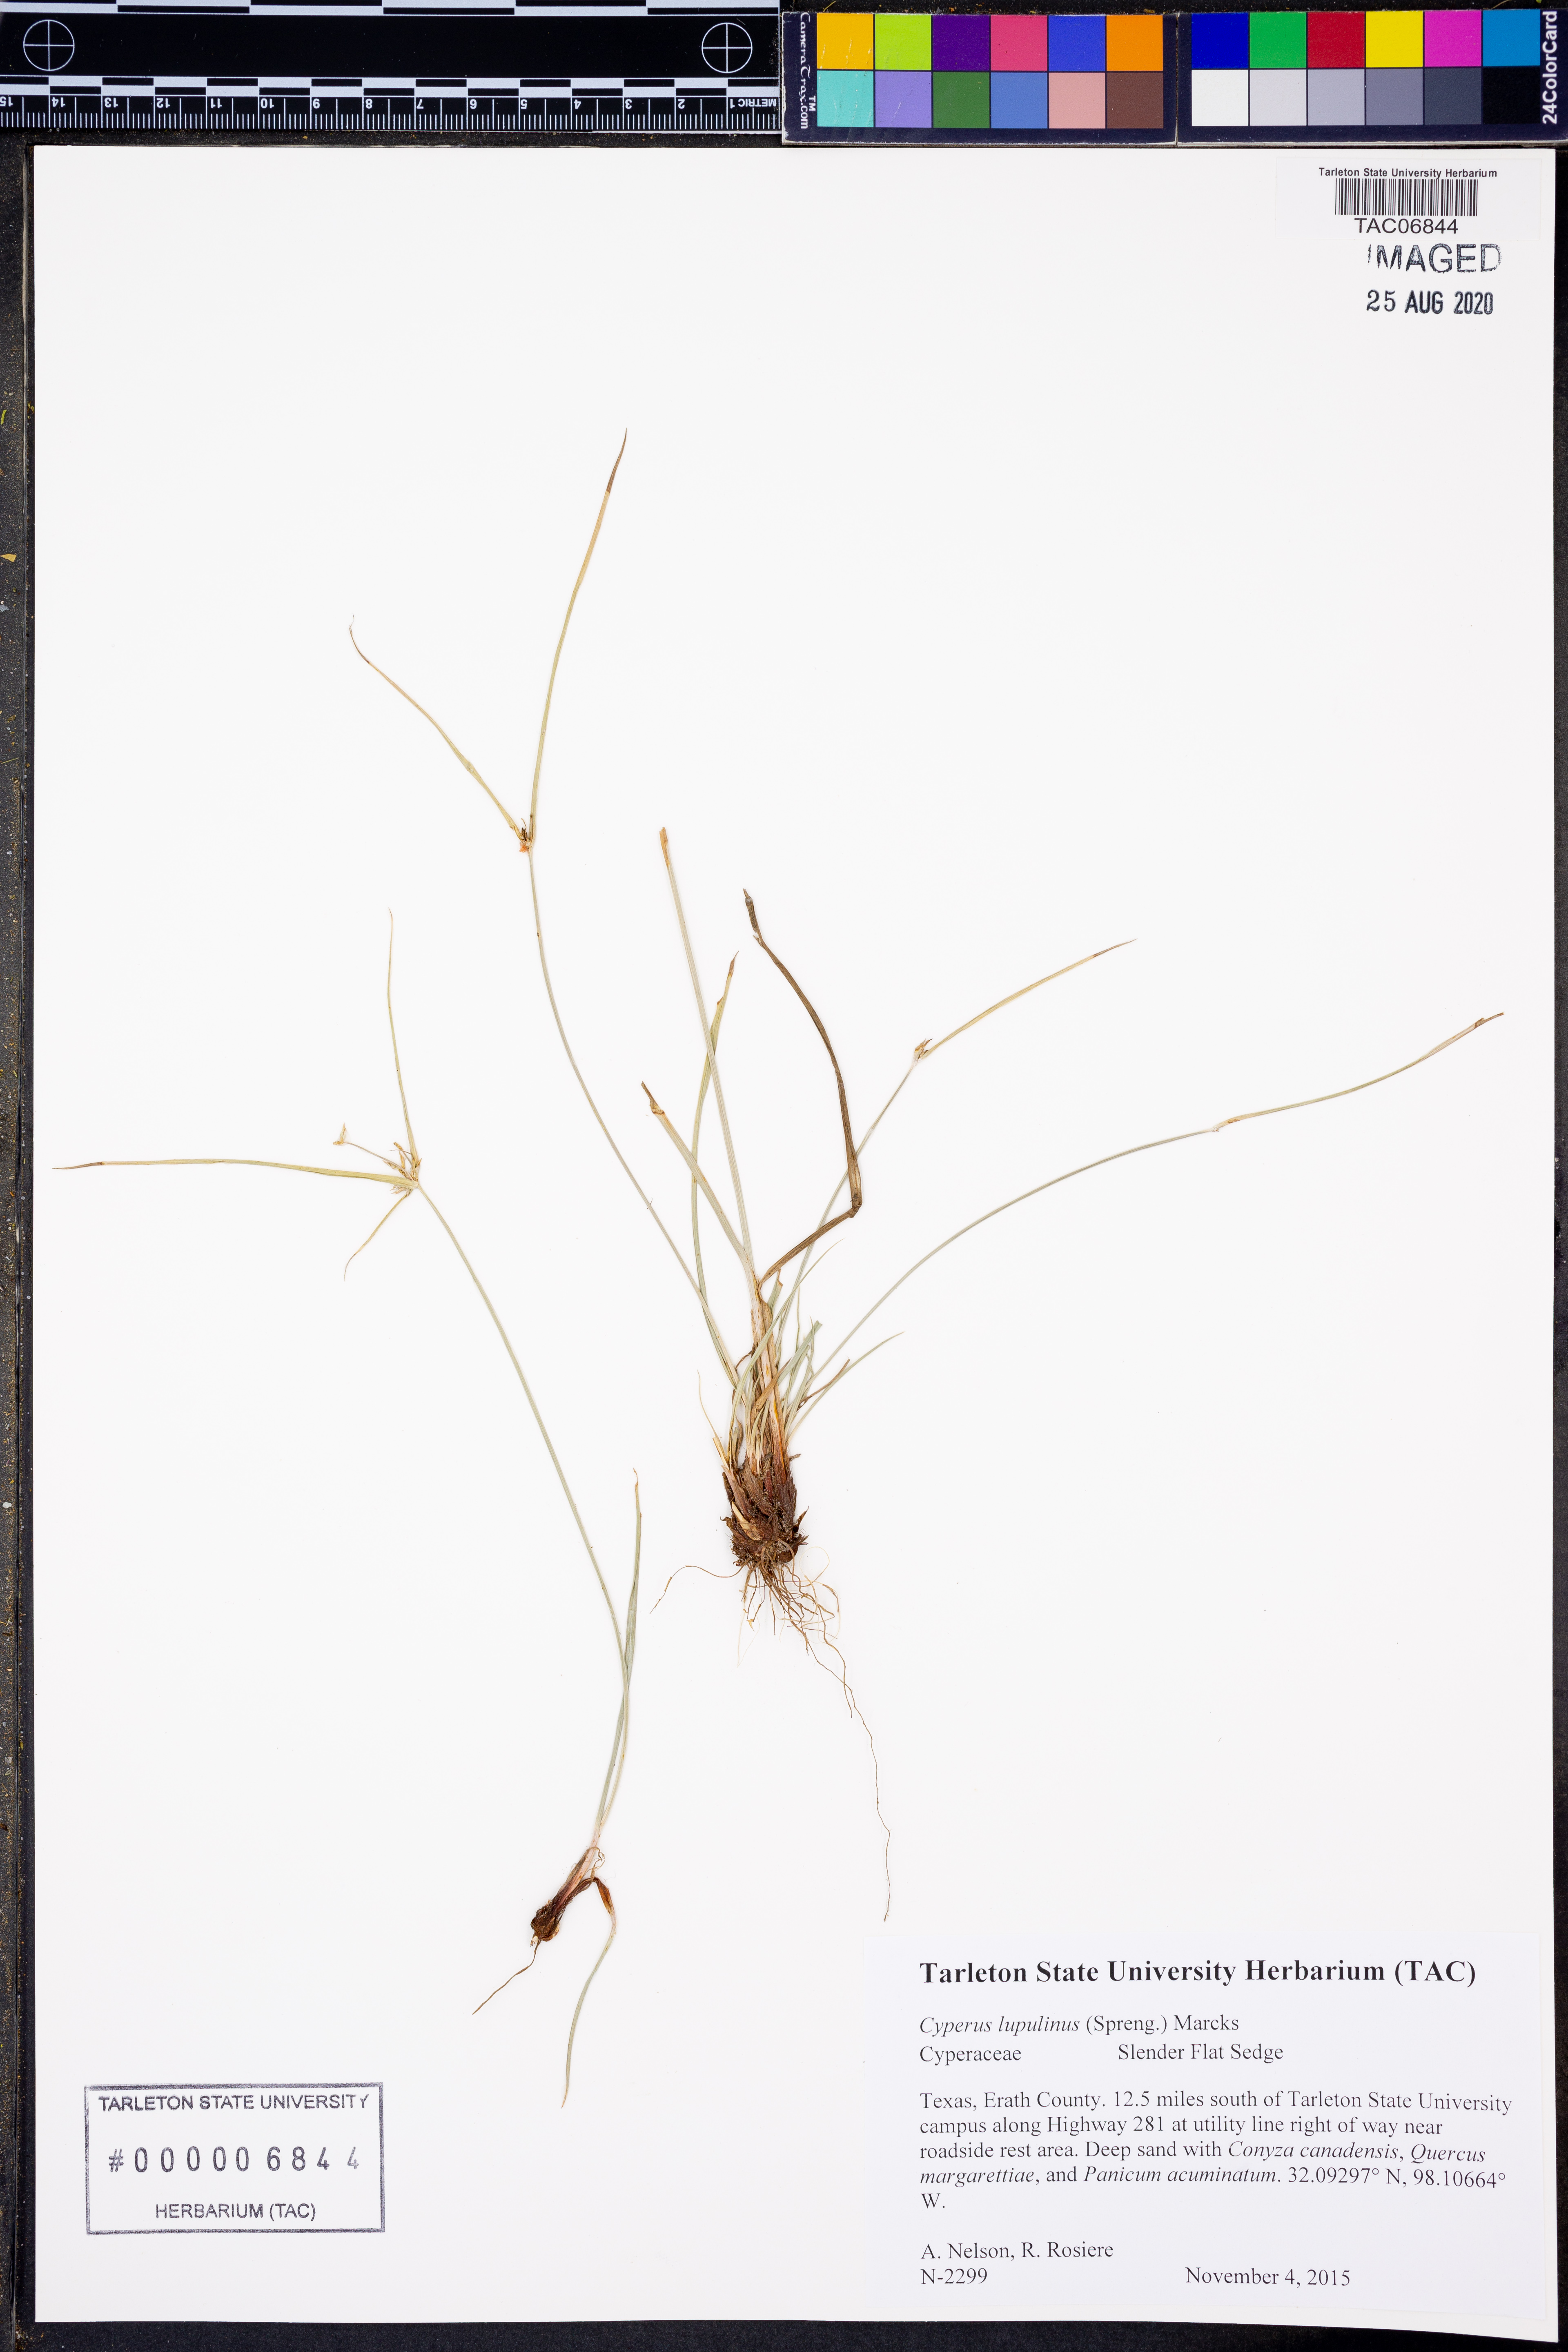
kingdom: Plantae
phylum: Tracheophyta
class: Liliopsida
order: Poales
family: Cyperaceae
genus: Cyperus
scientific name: Cyperus lupulinus
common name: Great plains flatsedge
